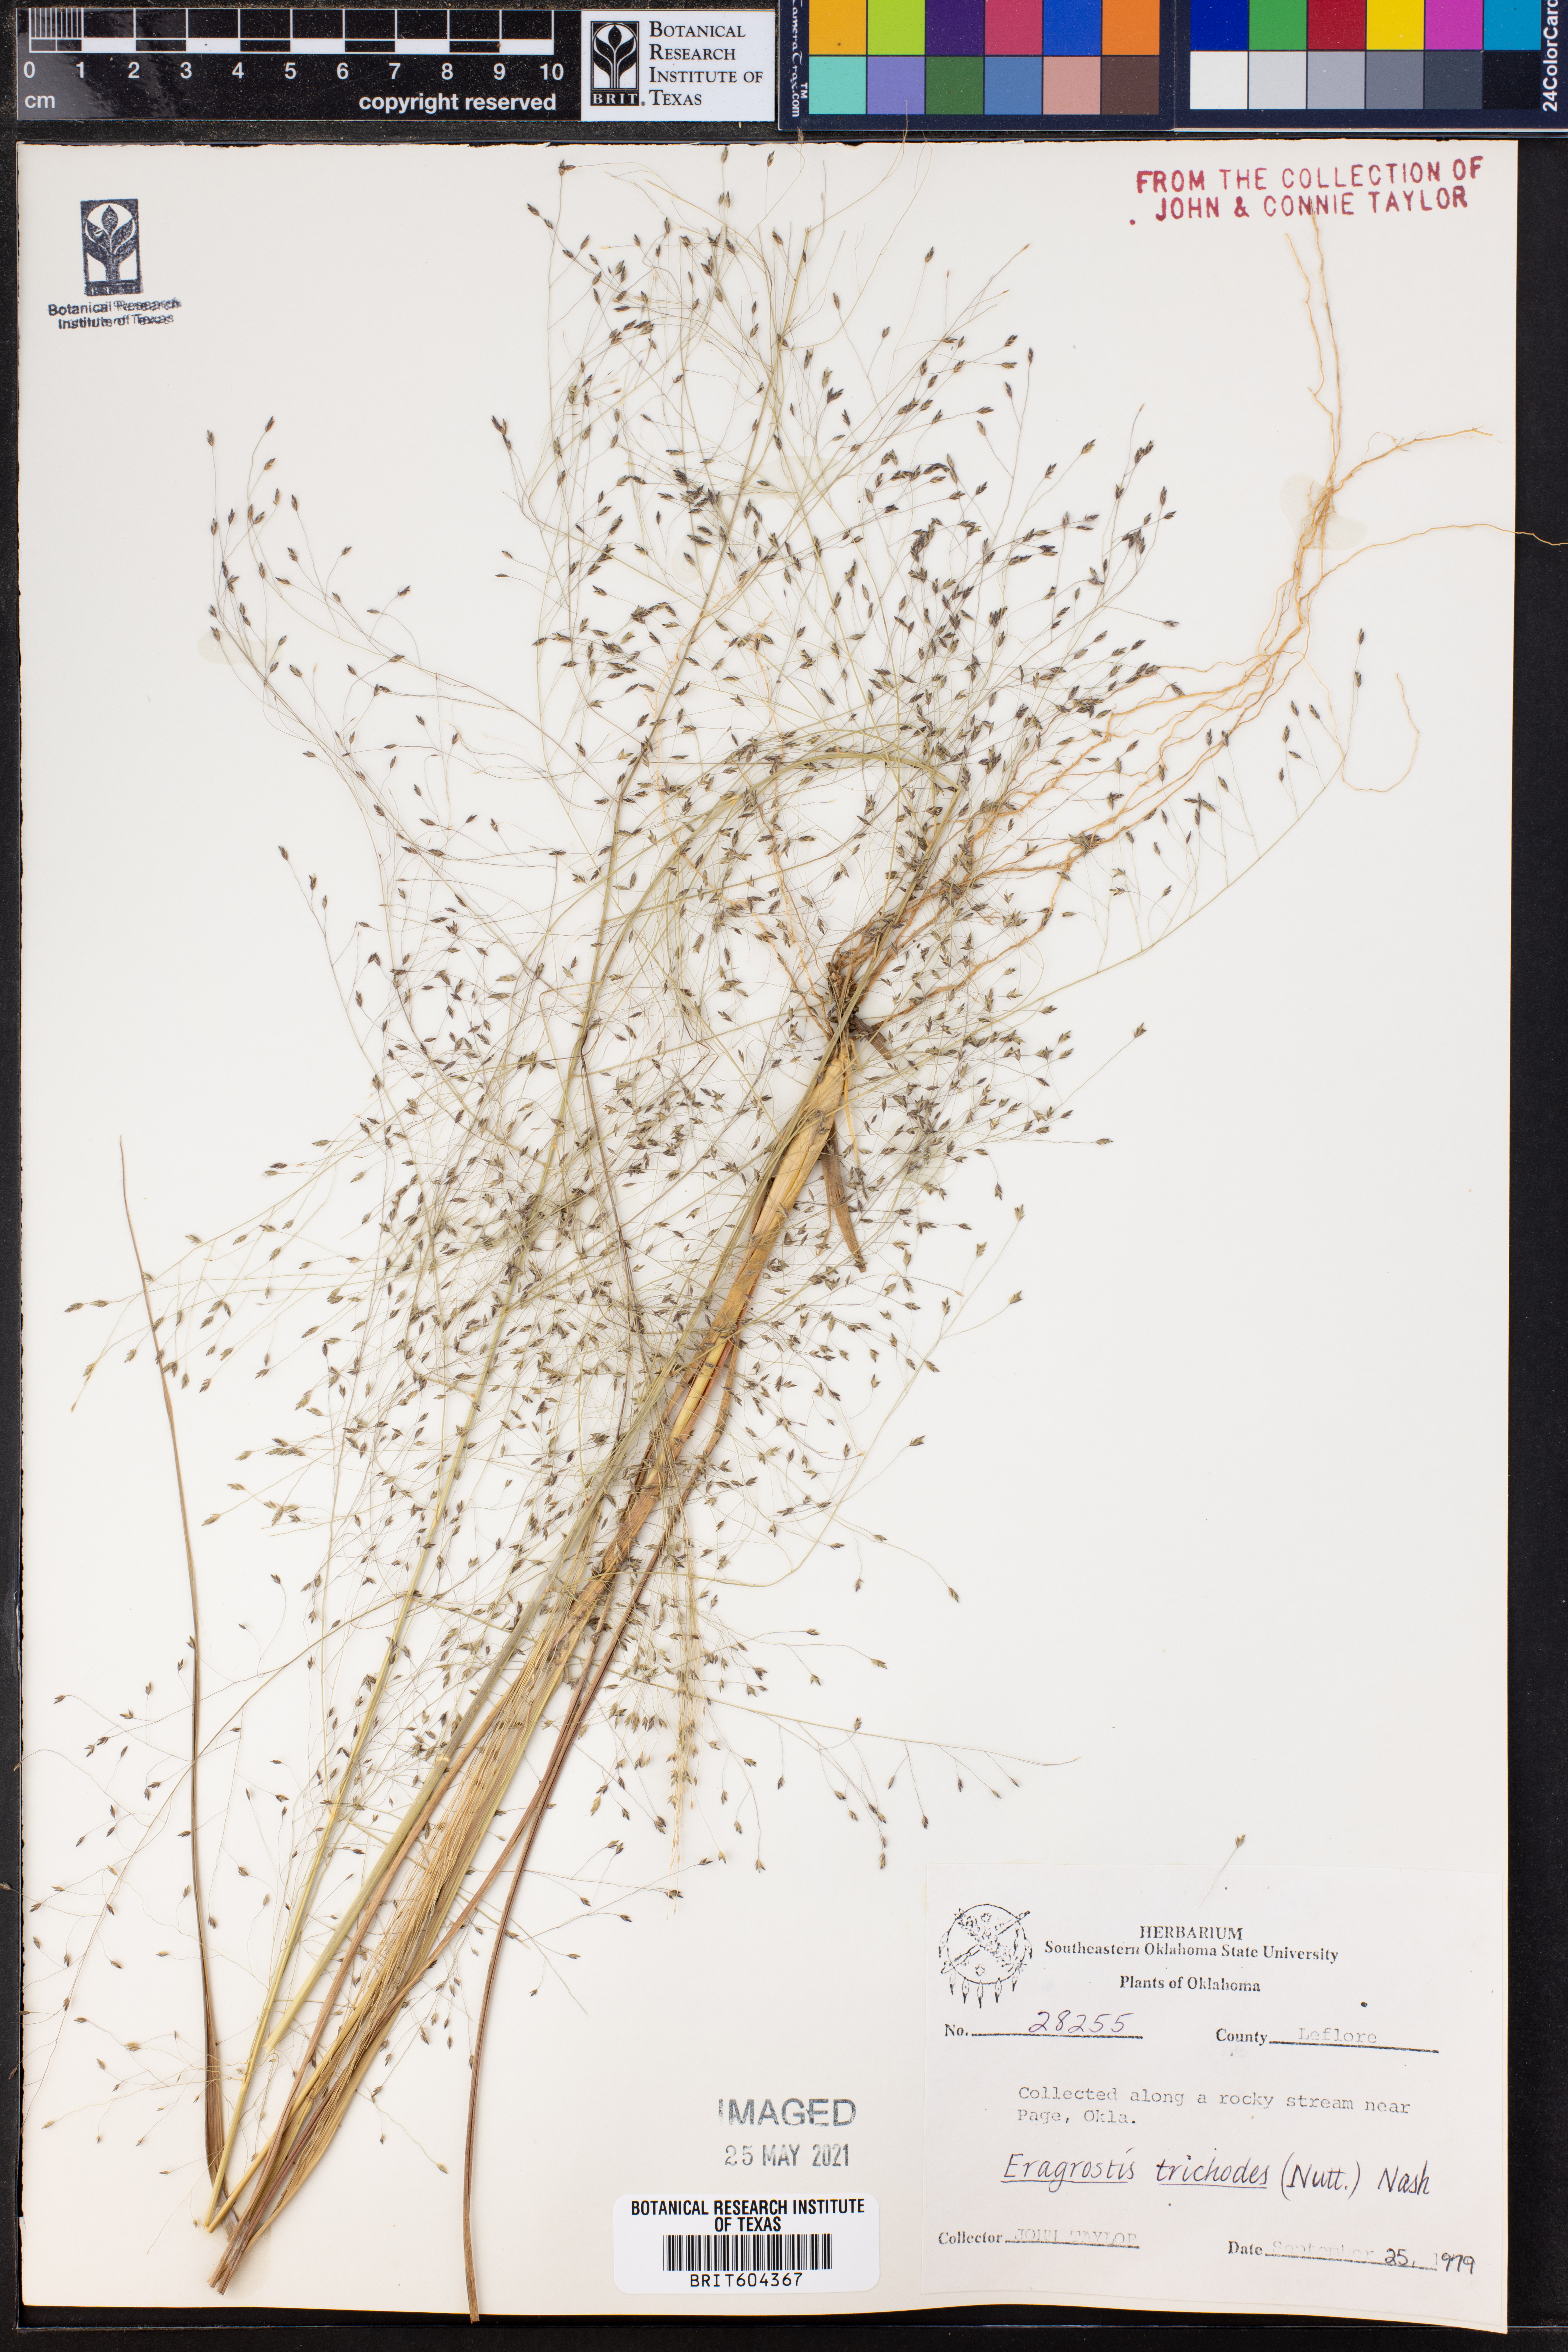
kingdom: Plantae
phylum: Tracheophyta
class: Liliopsida
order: Poales
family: Poaceae
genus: Eragrostis
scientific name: Eragrostis trichodes
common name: Sand love grass
